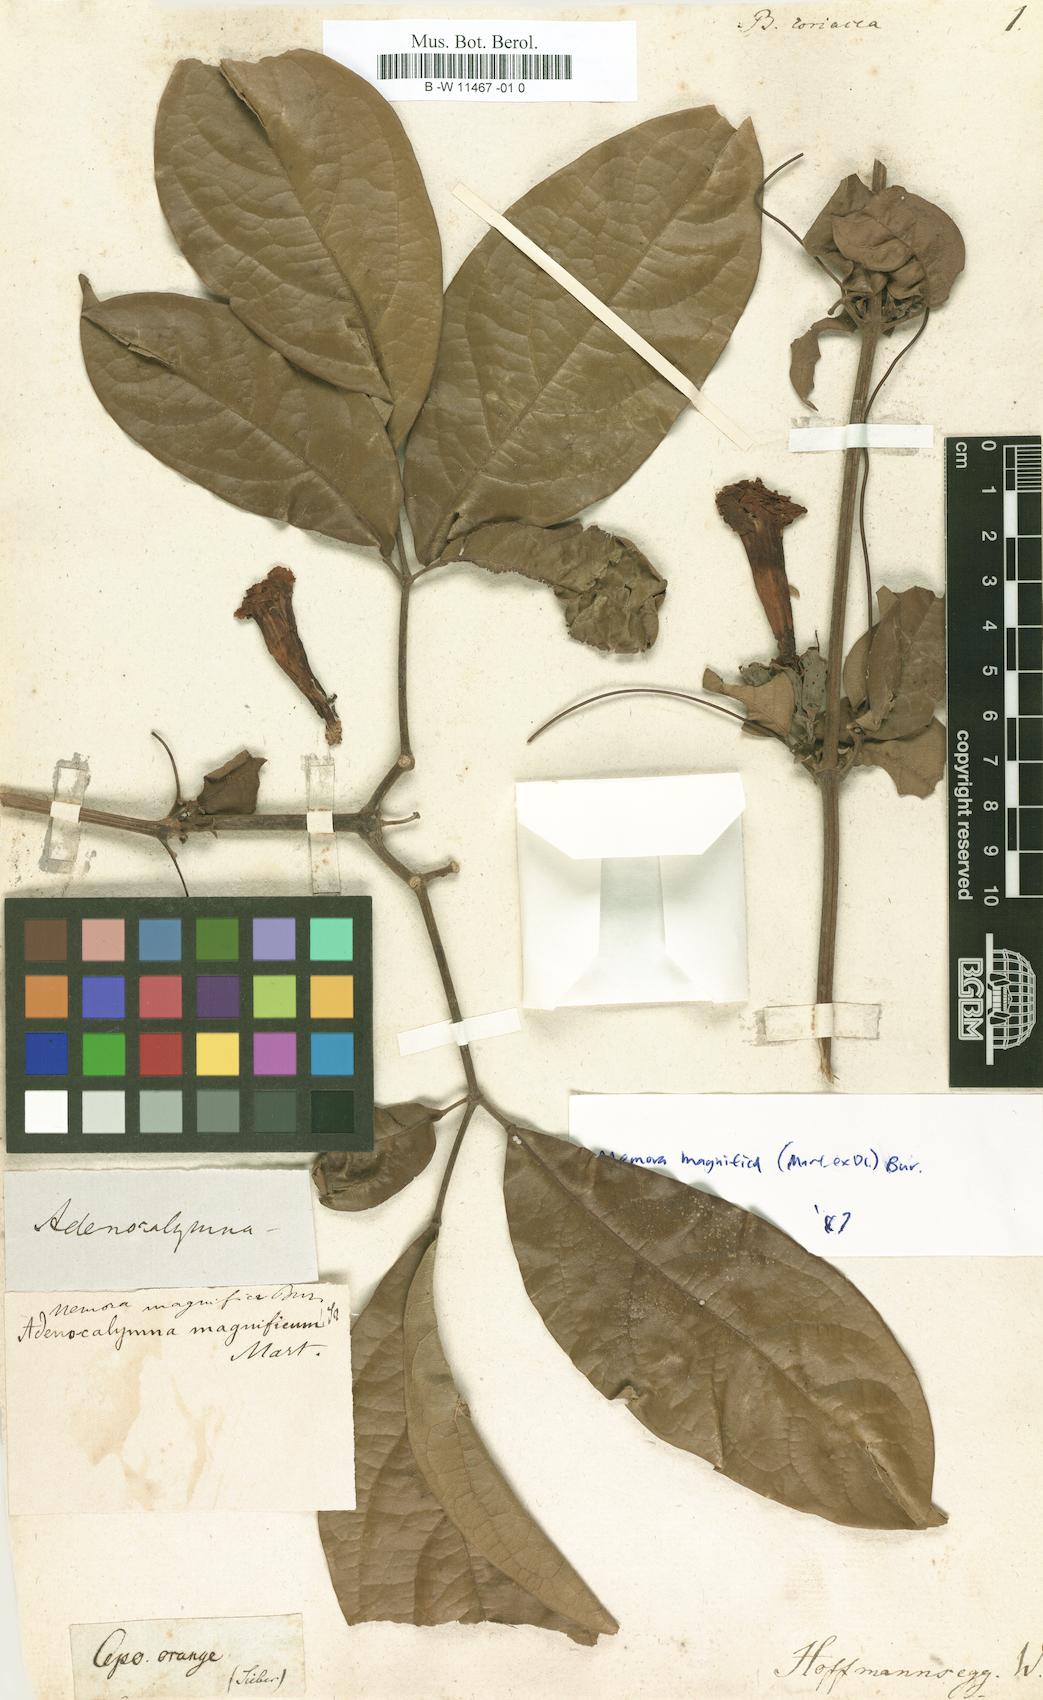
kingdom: Plantae
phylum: Tracheophyta
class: Magnoliopsida
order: Lamiales
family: Bignoniaceae
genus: Tanaecium
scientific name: Tanaecium selloi
